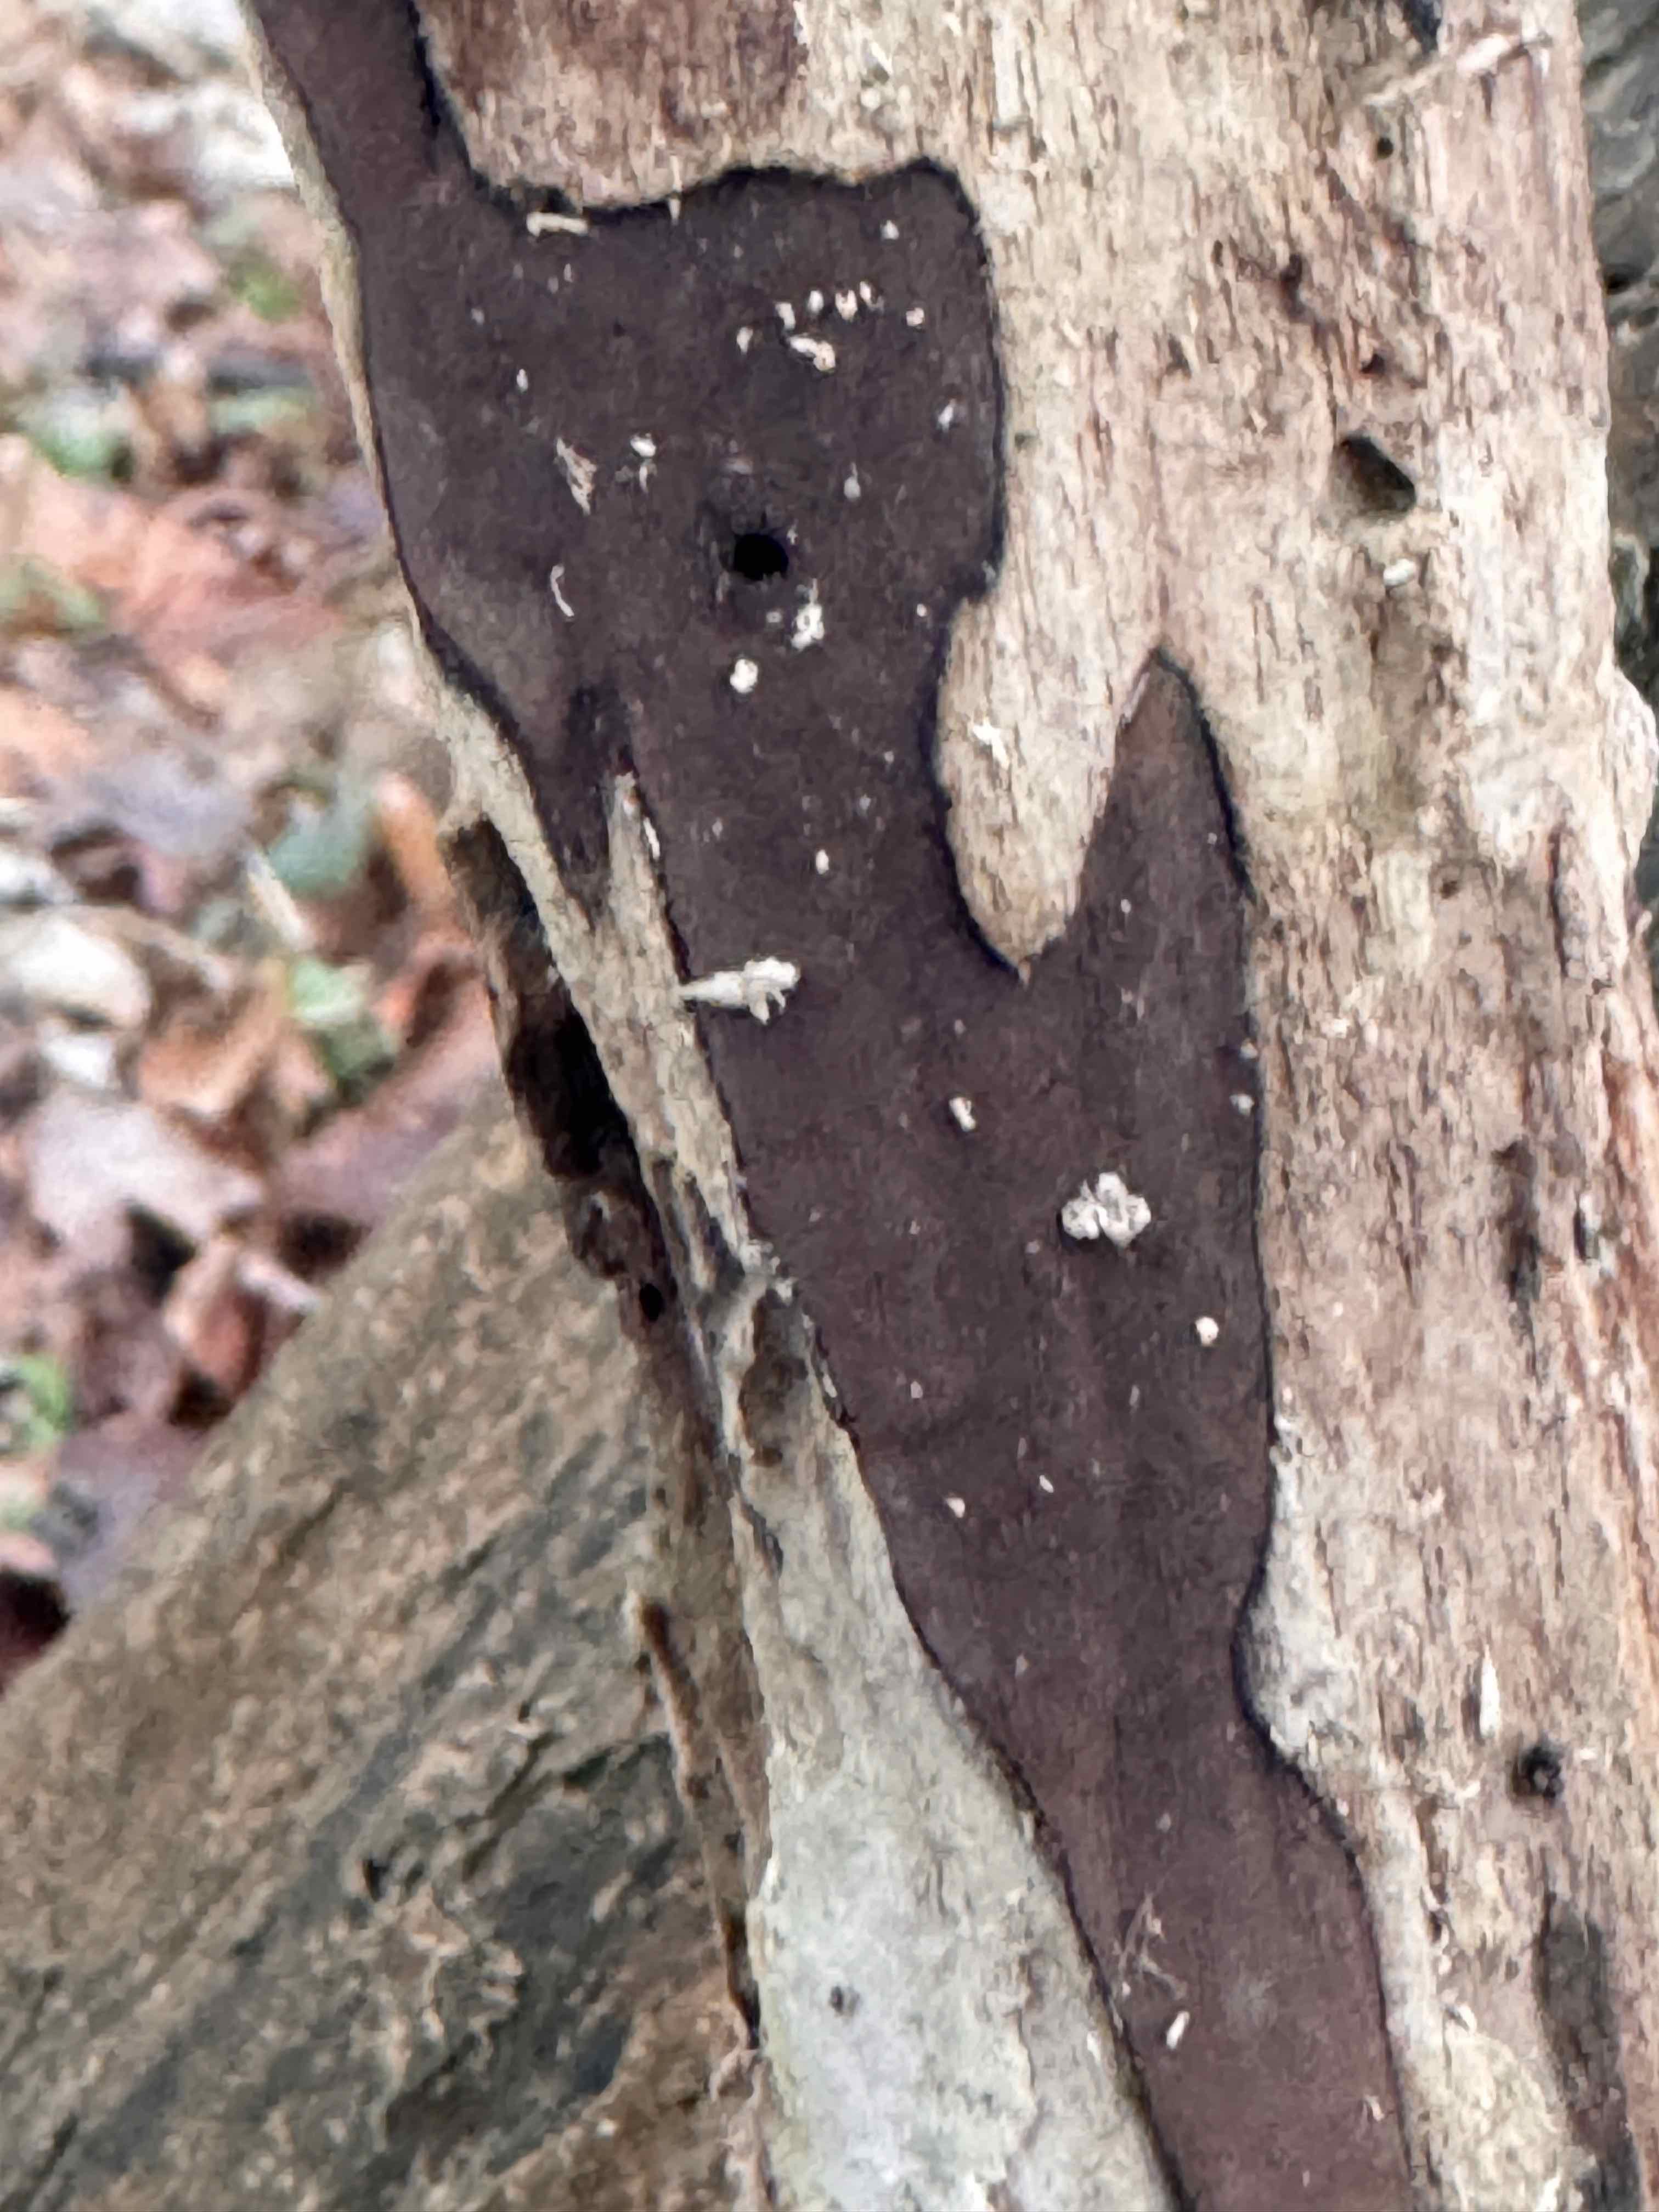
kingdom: Fungi
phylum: Ascomycota
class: Sordariomycetes
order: Xylariales
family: Hypoxylaceae
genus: Hypoxylon
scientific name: Hypoxylon petriniae
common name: nedsænket kulbær
